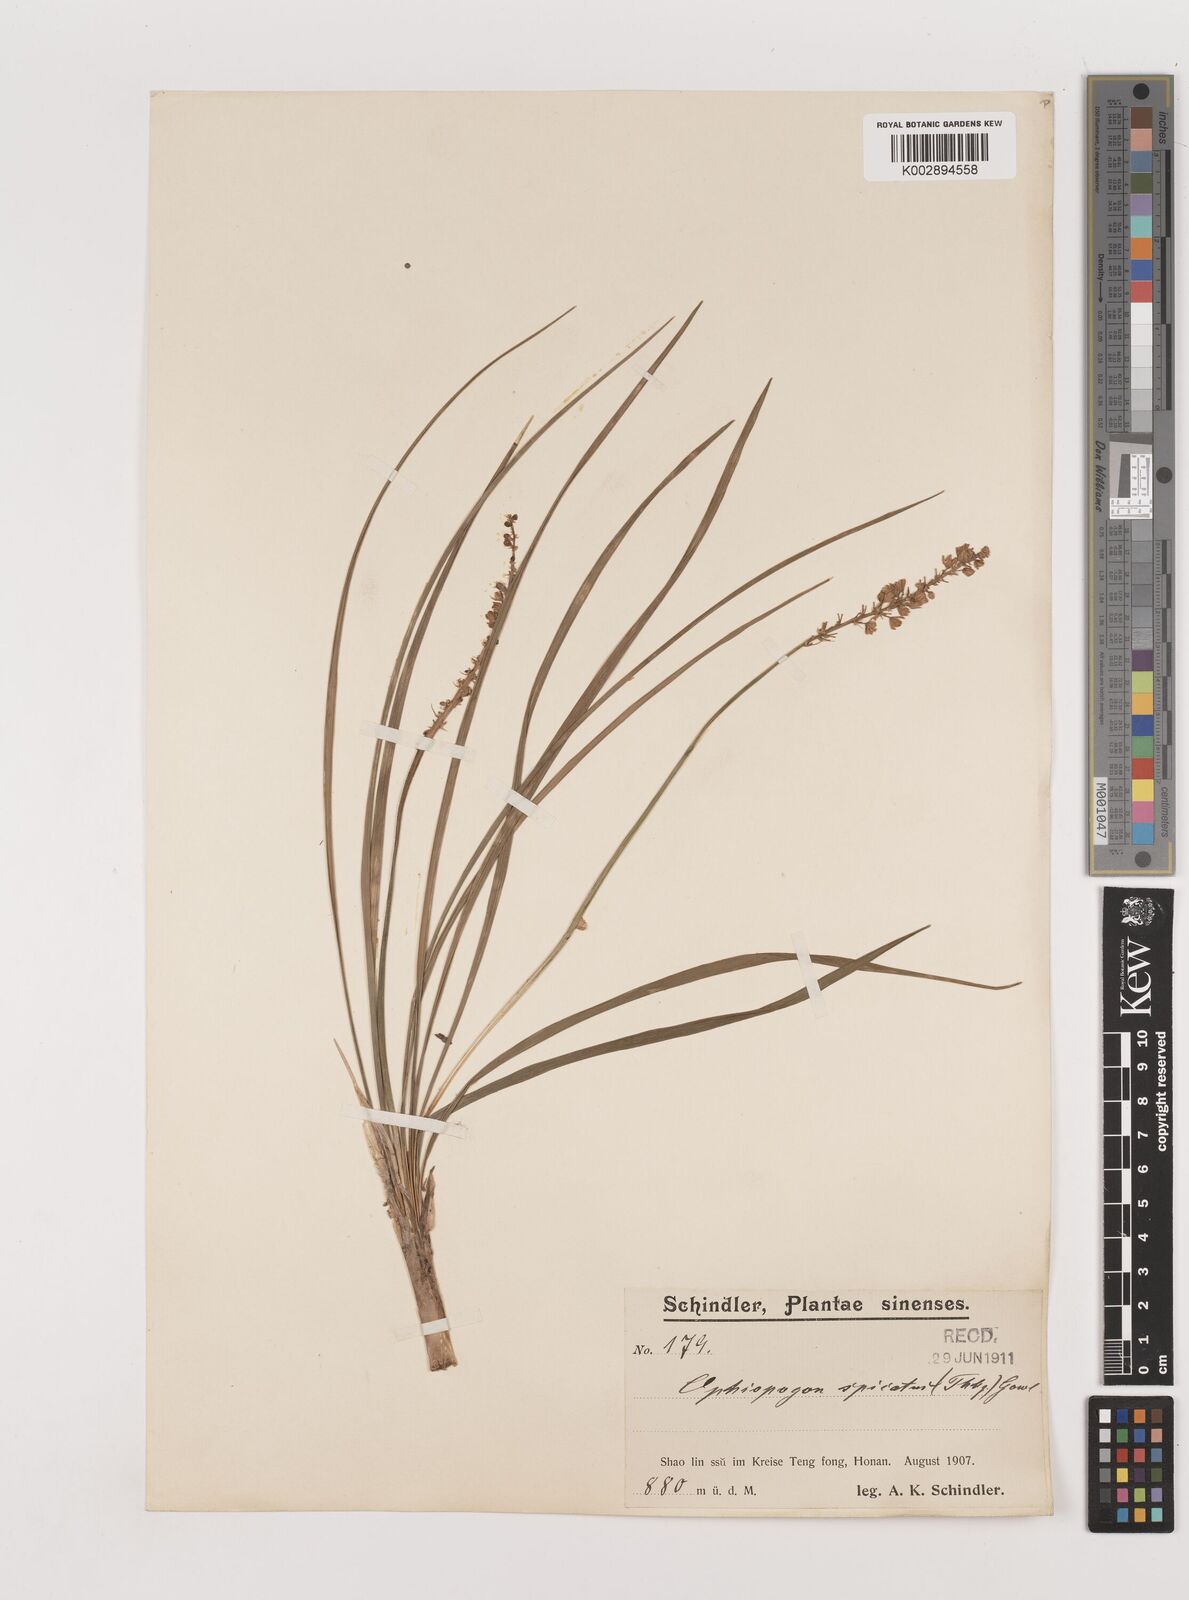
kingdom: Plantae
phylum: Tracheophyta
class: Liliopsida
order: Asparagales
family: Asparagaceae
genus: Liriope
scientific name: Liriope spicata
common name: Creeping liriope
